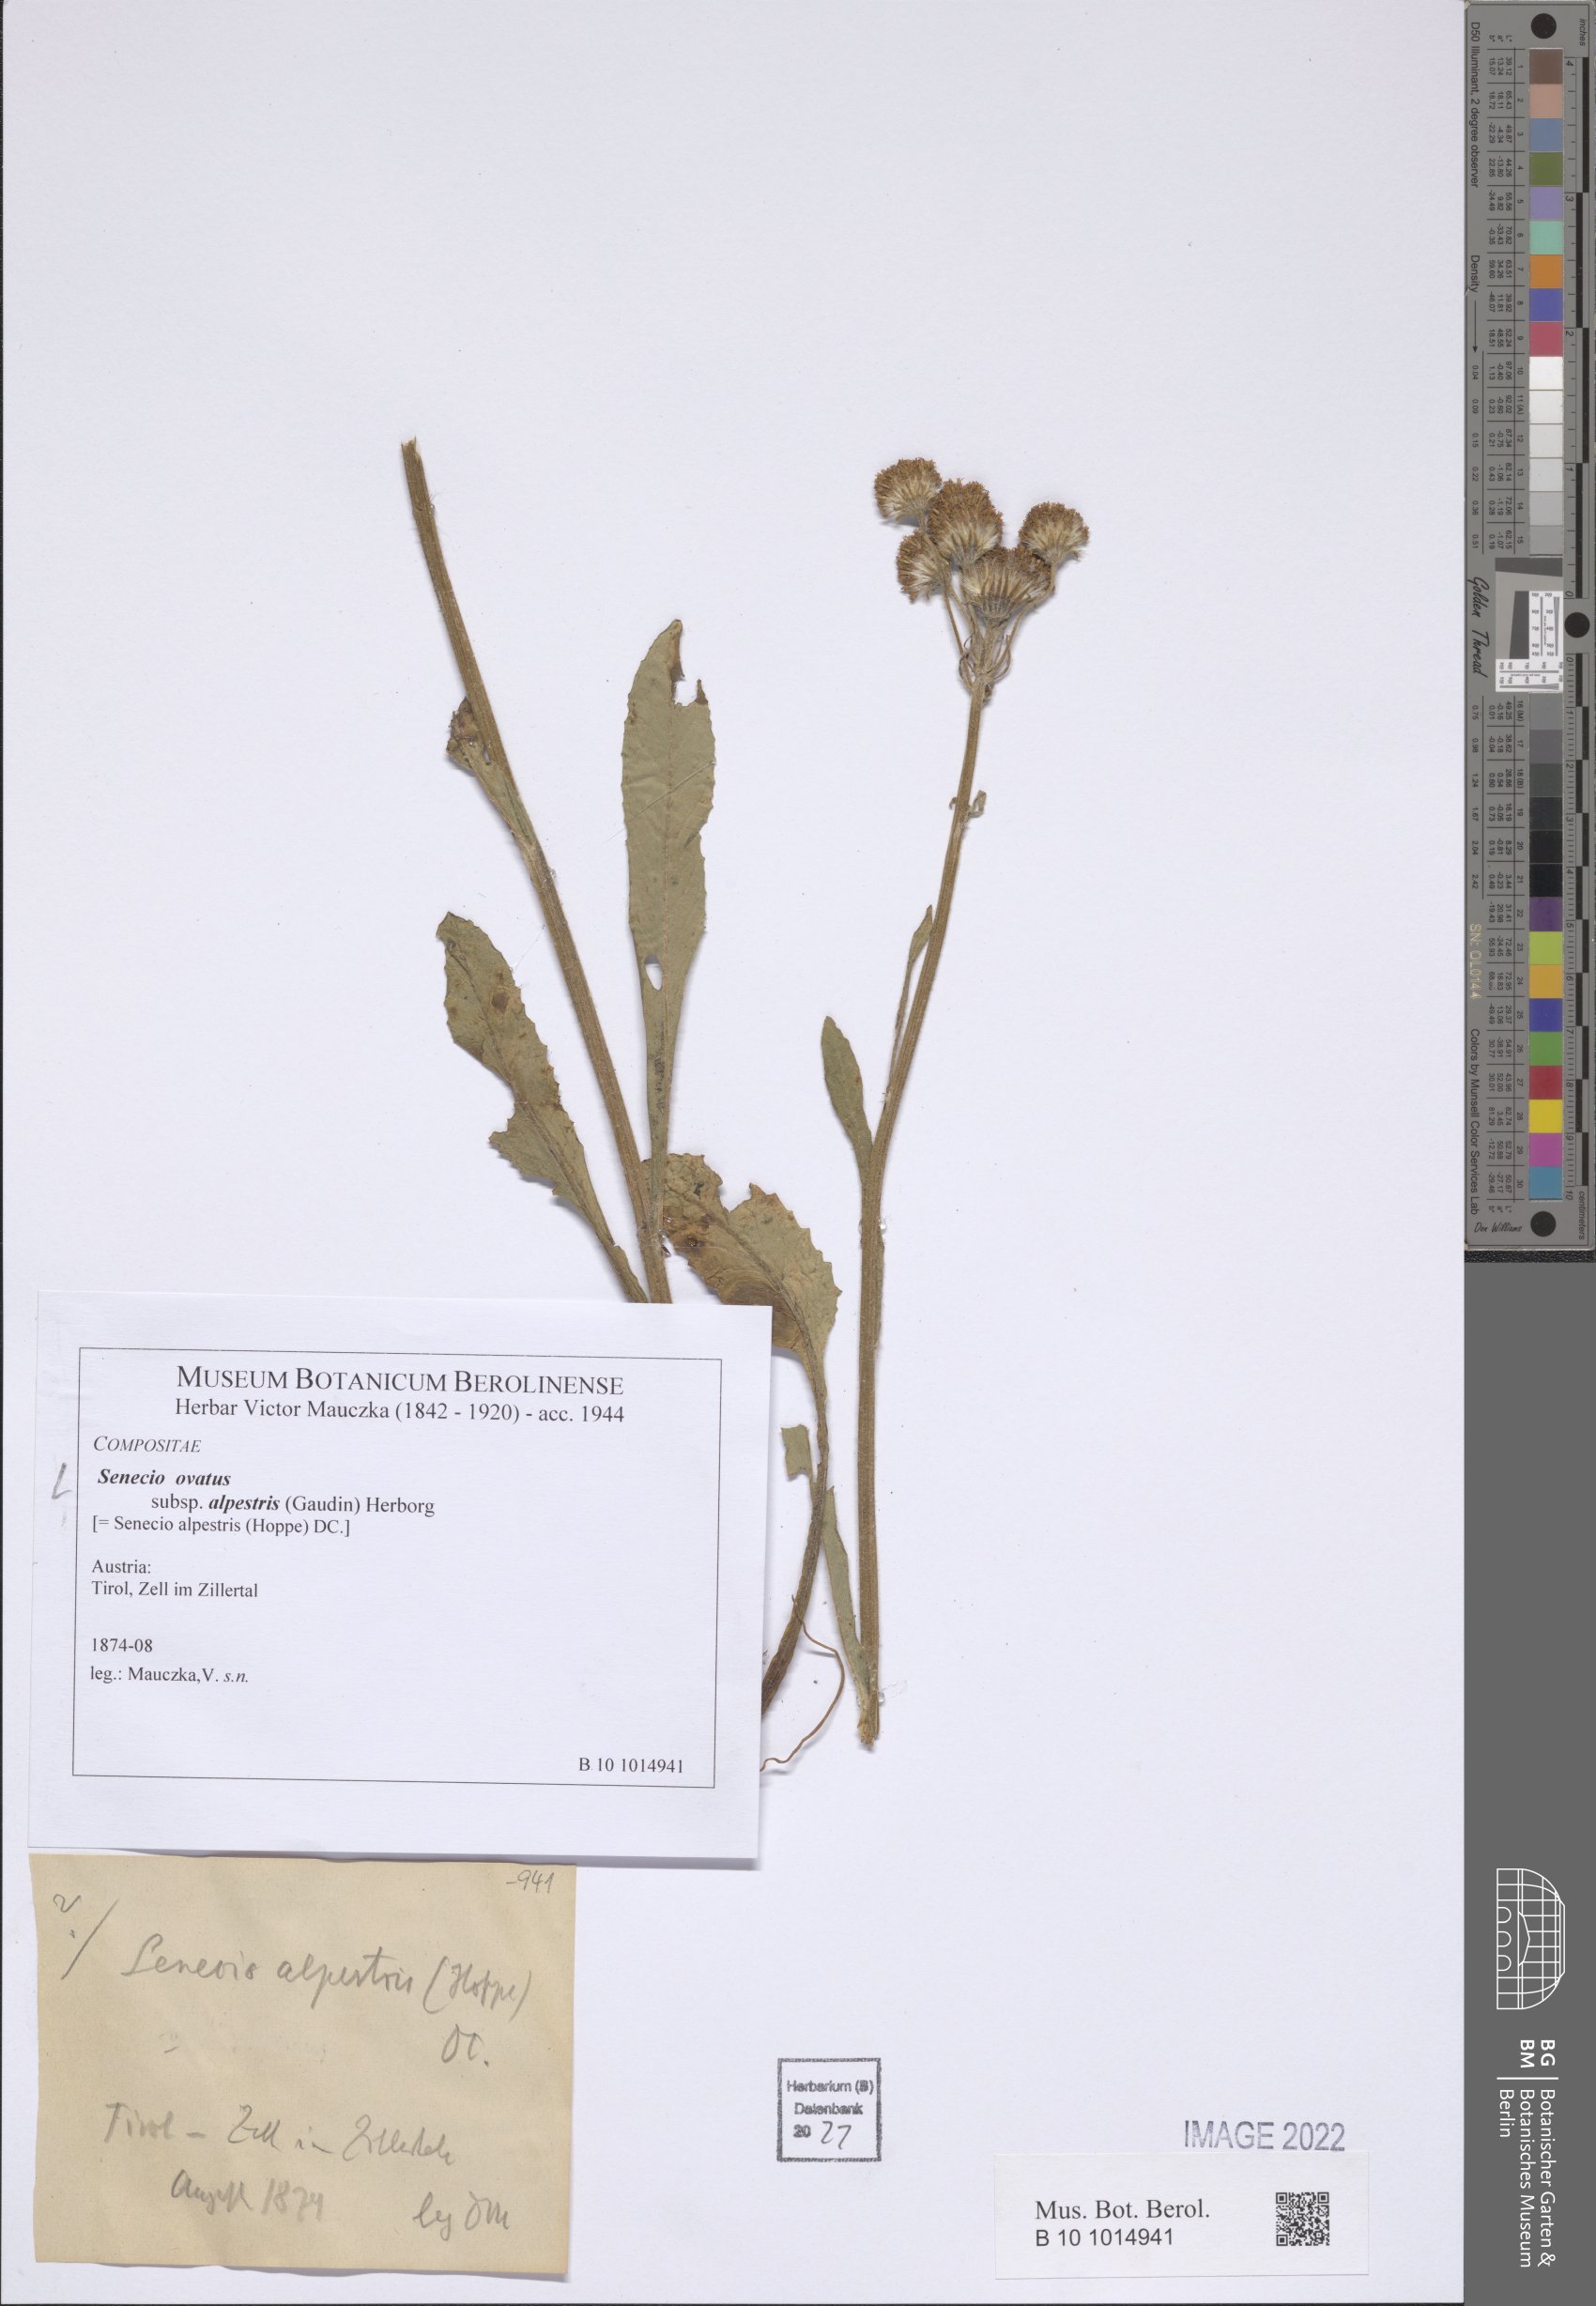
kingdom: Plantae
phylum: Tracheophyta
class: Magnoliopsida
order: Asterales
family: Asteraceae
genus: Senecio
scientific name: Senecio ovatus
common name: Wood ragwort
